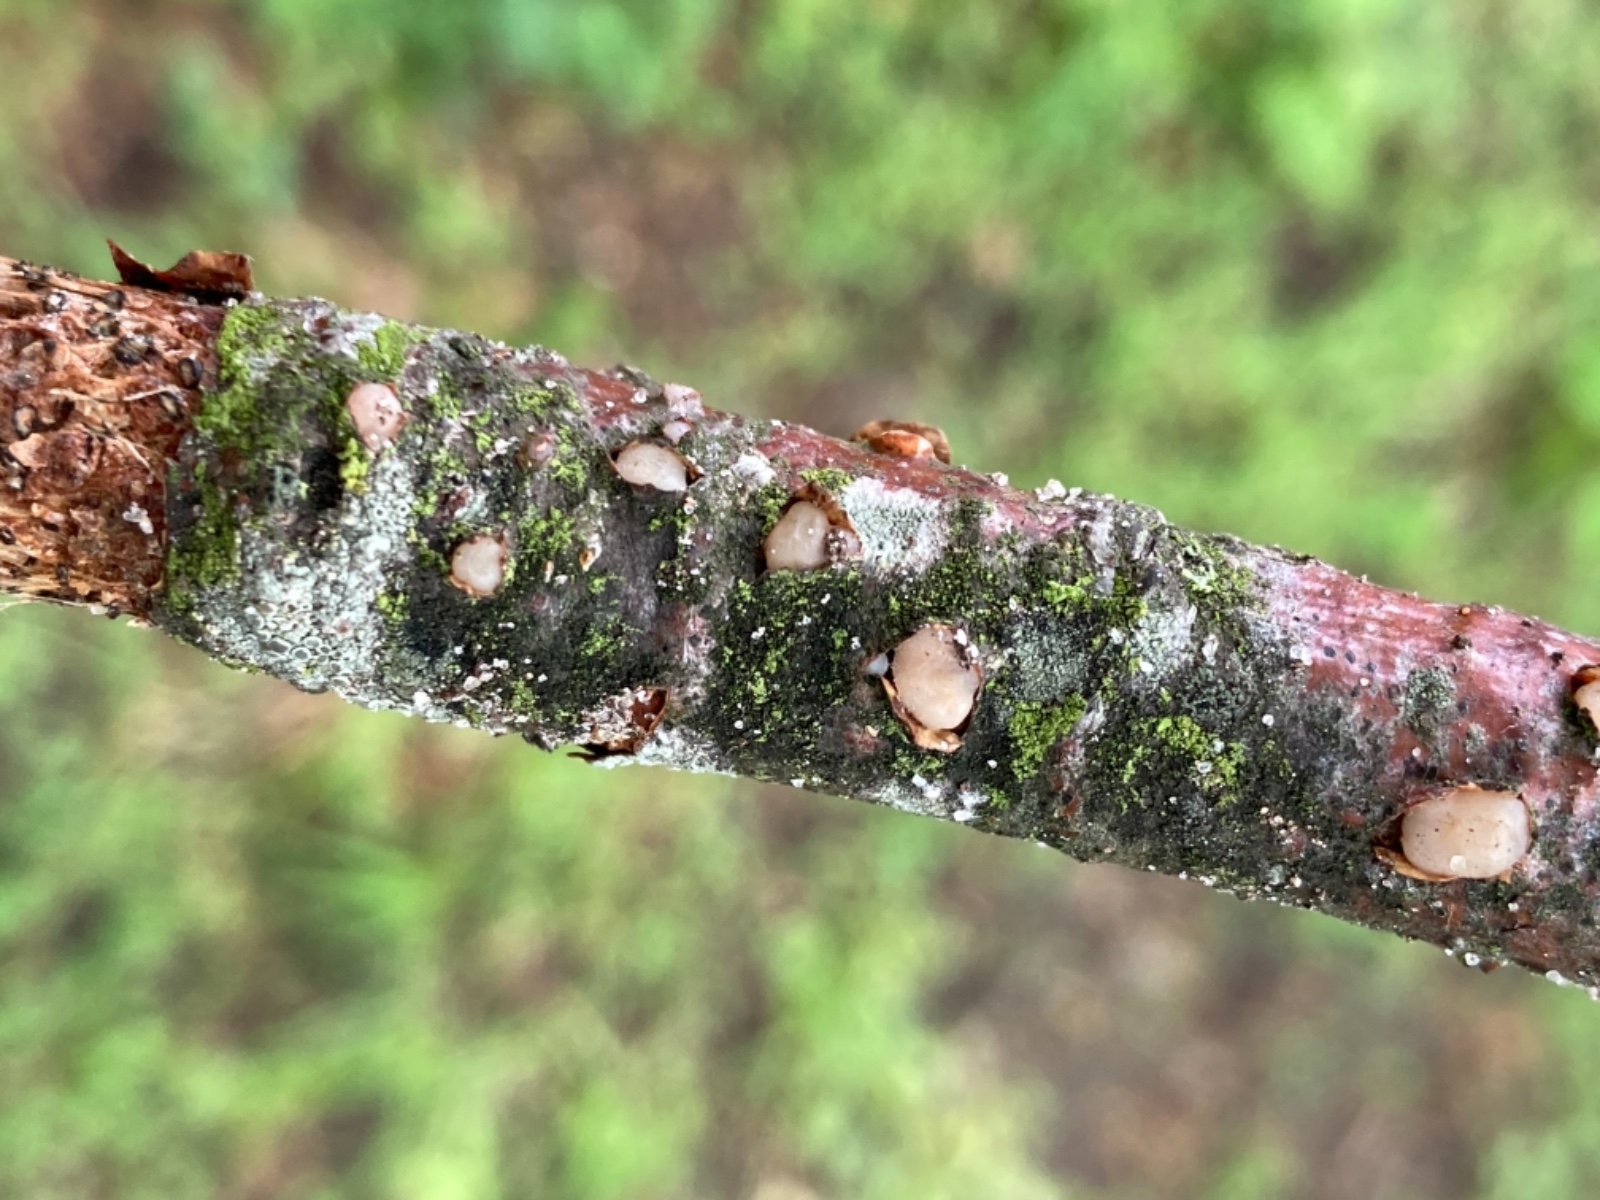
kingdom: Fungi
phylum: Basidiomycota
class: Pucciniomycetes
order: Platygloeales
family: Platygloeaceae
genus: Platygloea
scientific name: Platygloea disciformis
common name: linde-slimklat
